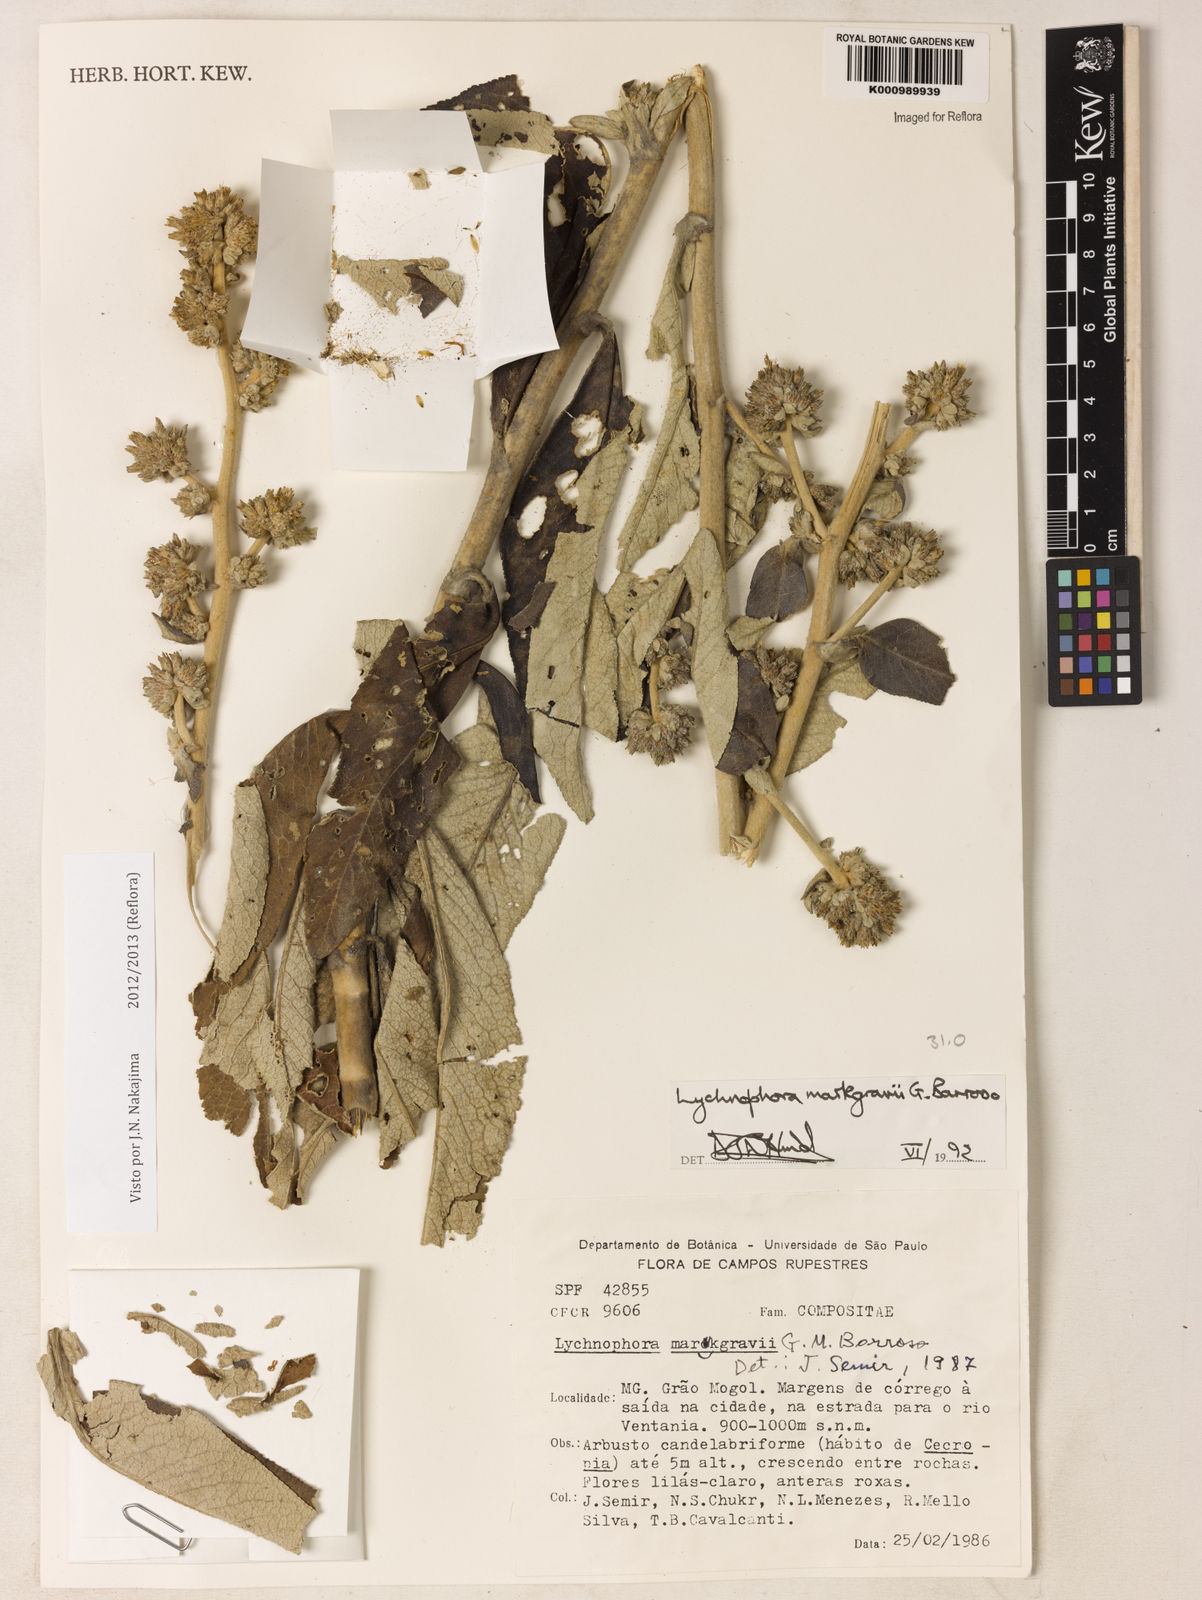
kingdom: Plantae
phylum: Tracheophyta
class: Magnoliopsida
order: Asterales
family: Asteraceae
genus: Lychnophora
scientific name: Lychnophora
